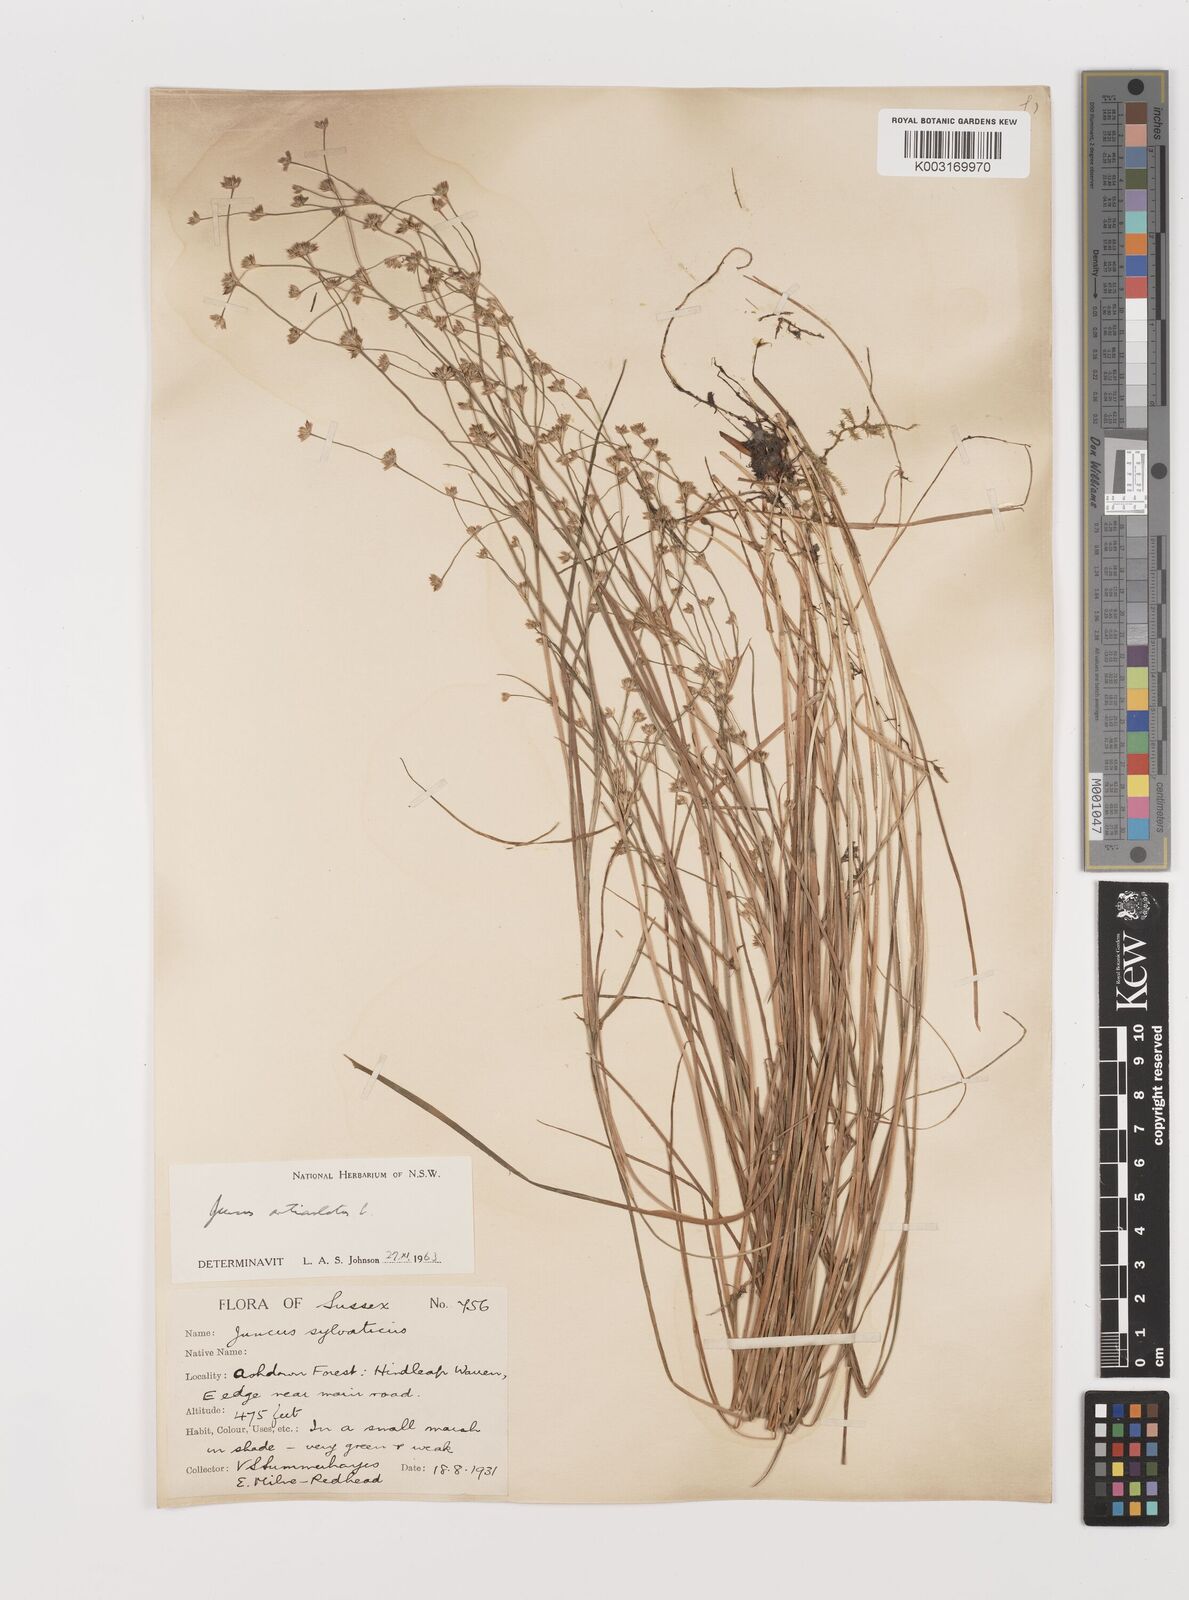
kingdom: Plantae
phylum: Tracheophyta
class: Liliopsida
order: Poales
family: Juncaceae
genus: Juncus
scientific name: Juncus articulatus
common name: Jointed rush
